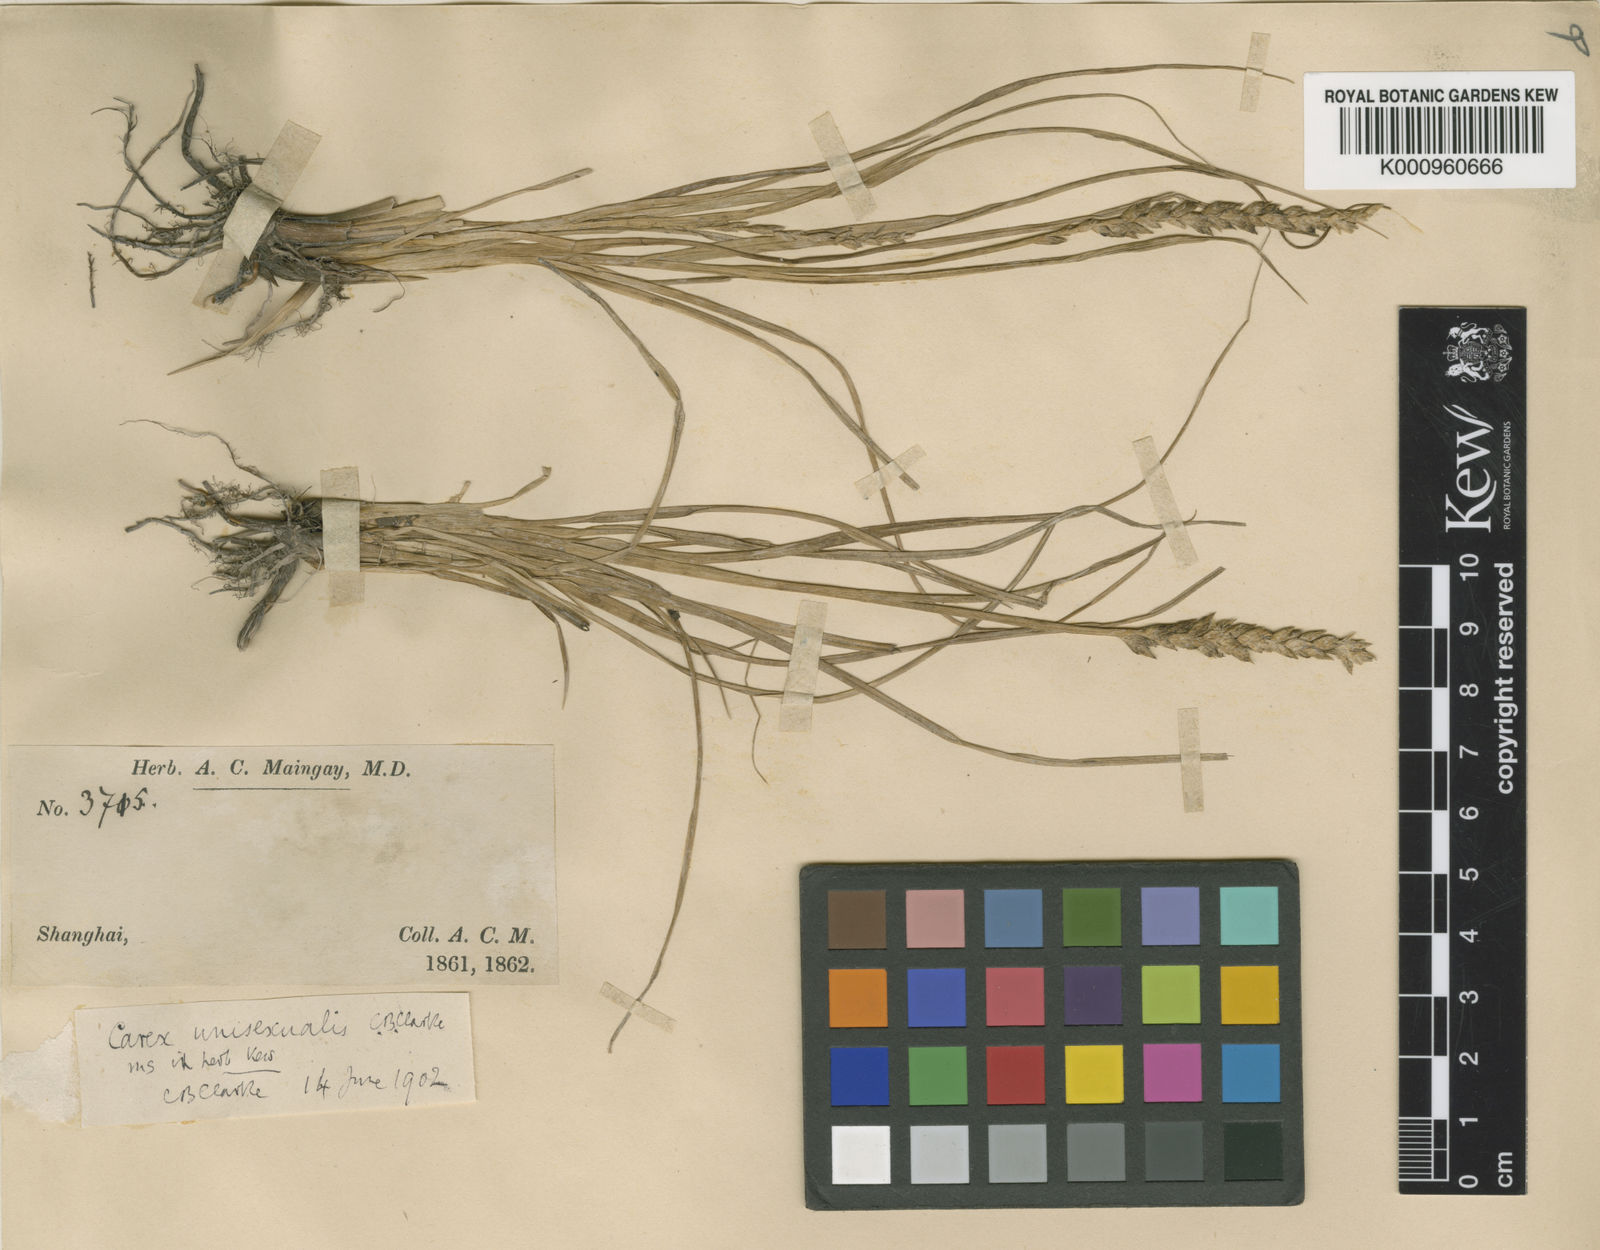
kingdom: Plantae
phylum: Tracheophyta
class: Liliopsida
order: Poales
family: Cyperaceae
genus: Carex
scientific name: Carex fluviatilis
